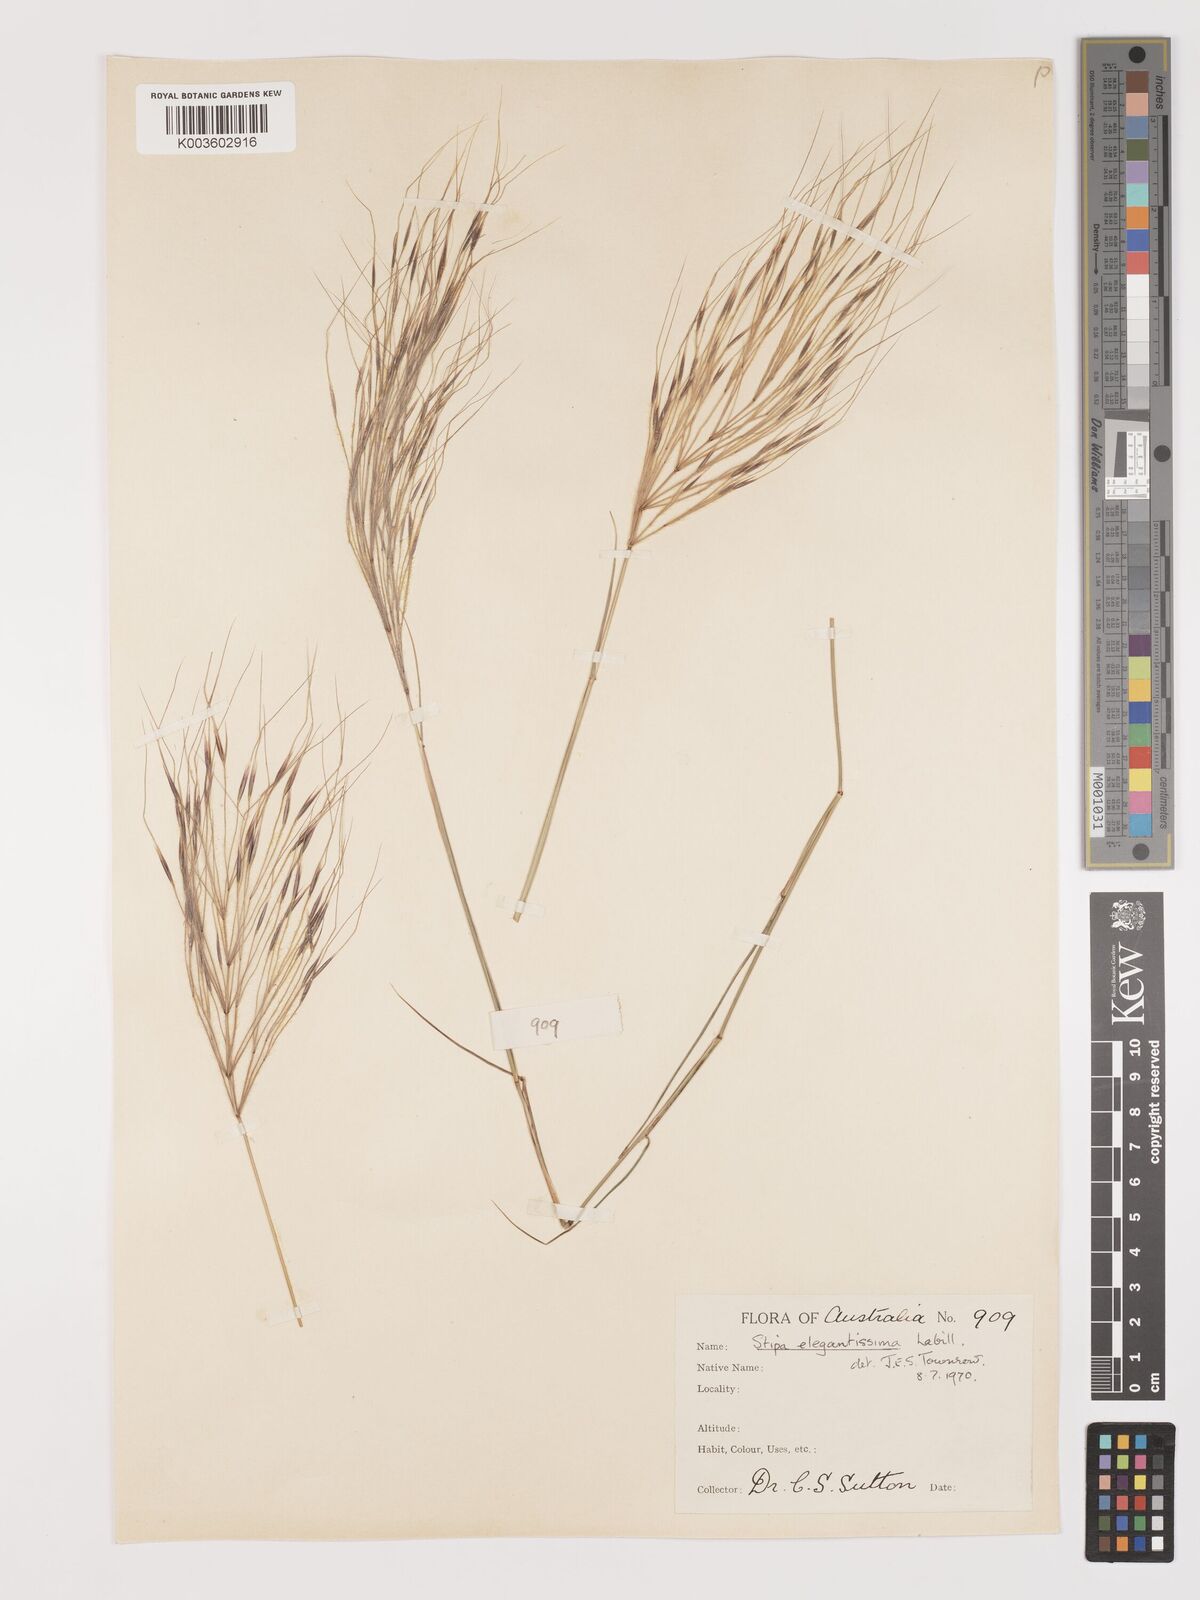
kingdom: Plantae
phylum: Tracheophyta
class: Liliopsida
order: Poales
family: Poaceae
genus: Austrostipa
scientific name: Austrostipa elegantissima
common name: Feather spear grass
